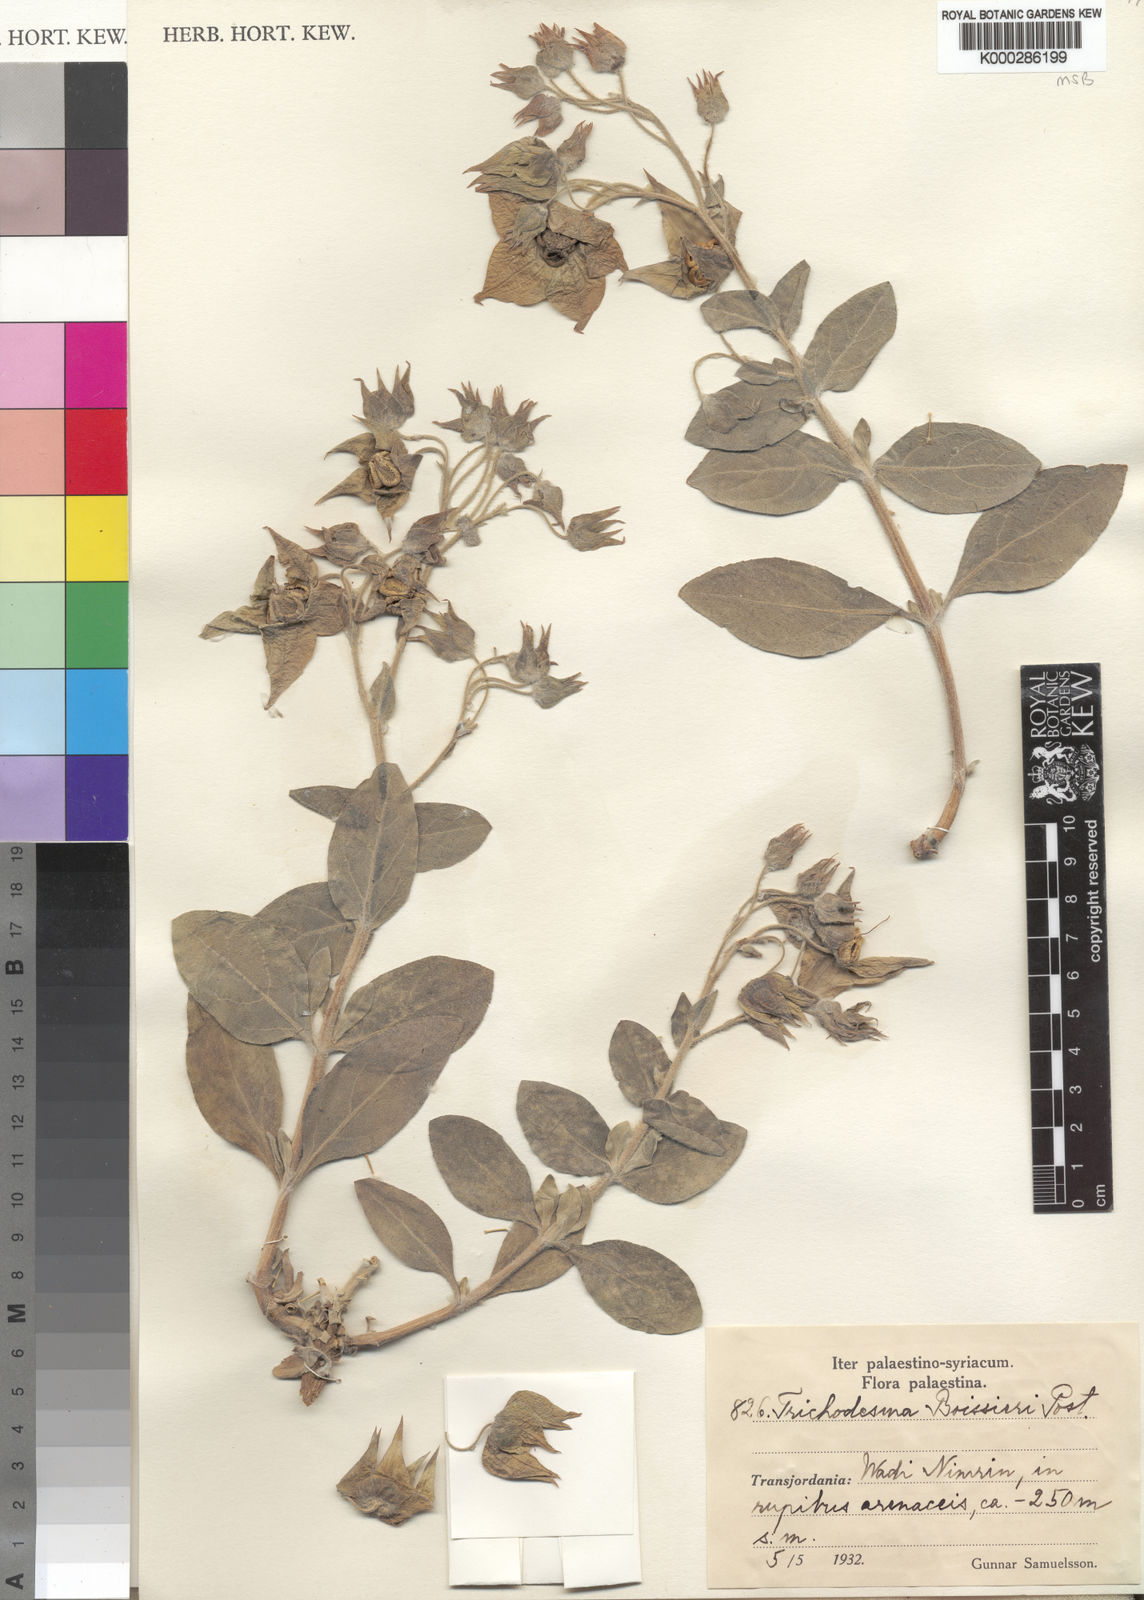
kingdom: Plantae
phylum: Tracheophyta
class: Magnoliopsida
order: Boraginales
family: Boraginaceae
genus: Trichodesma
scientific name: Trichodesma boissieri
